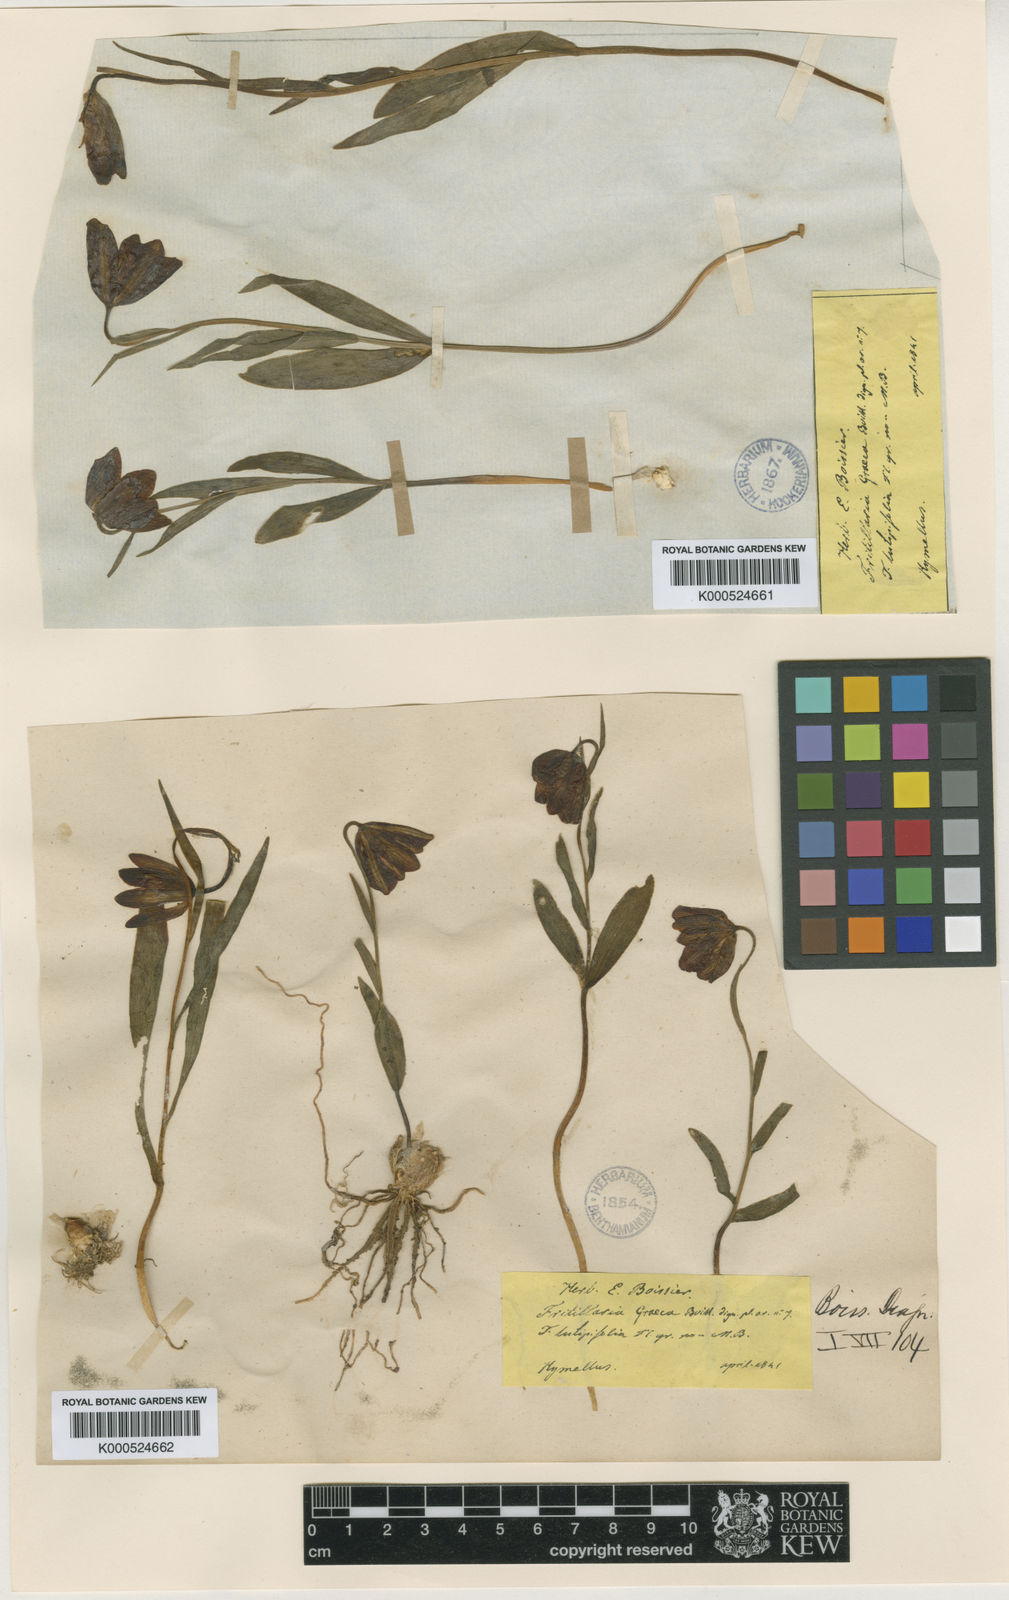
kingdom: Plantae
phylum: Tracheophyta
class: Liliopsida
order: Liliales
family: Liliaceae
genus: Fritillaria
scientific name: Fritillaria graeca
